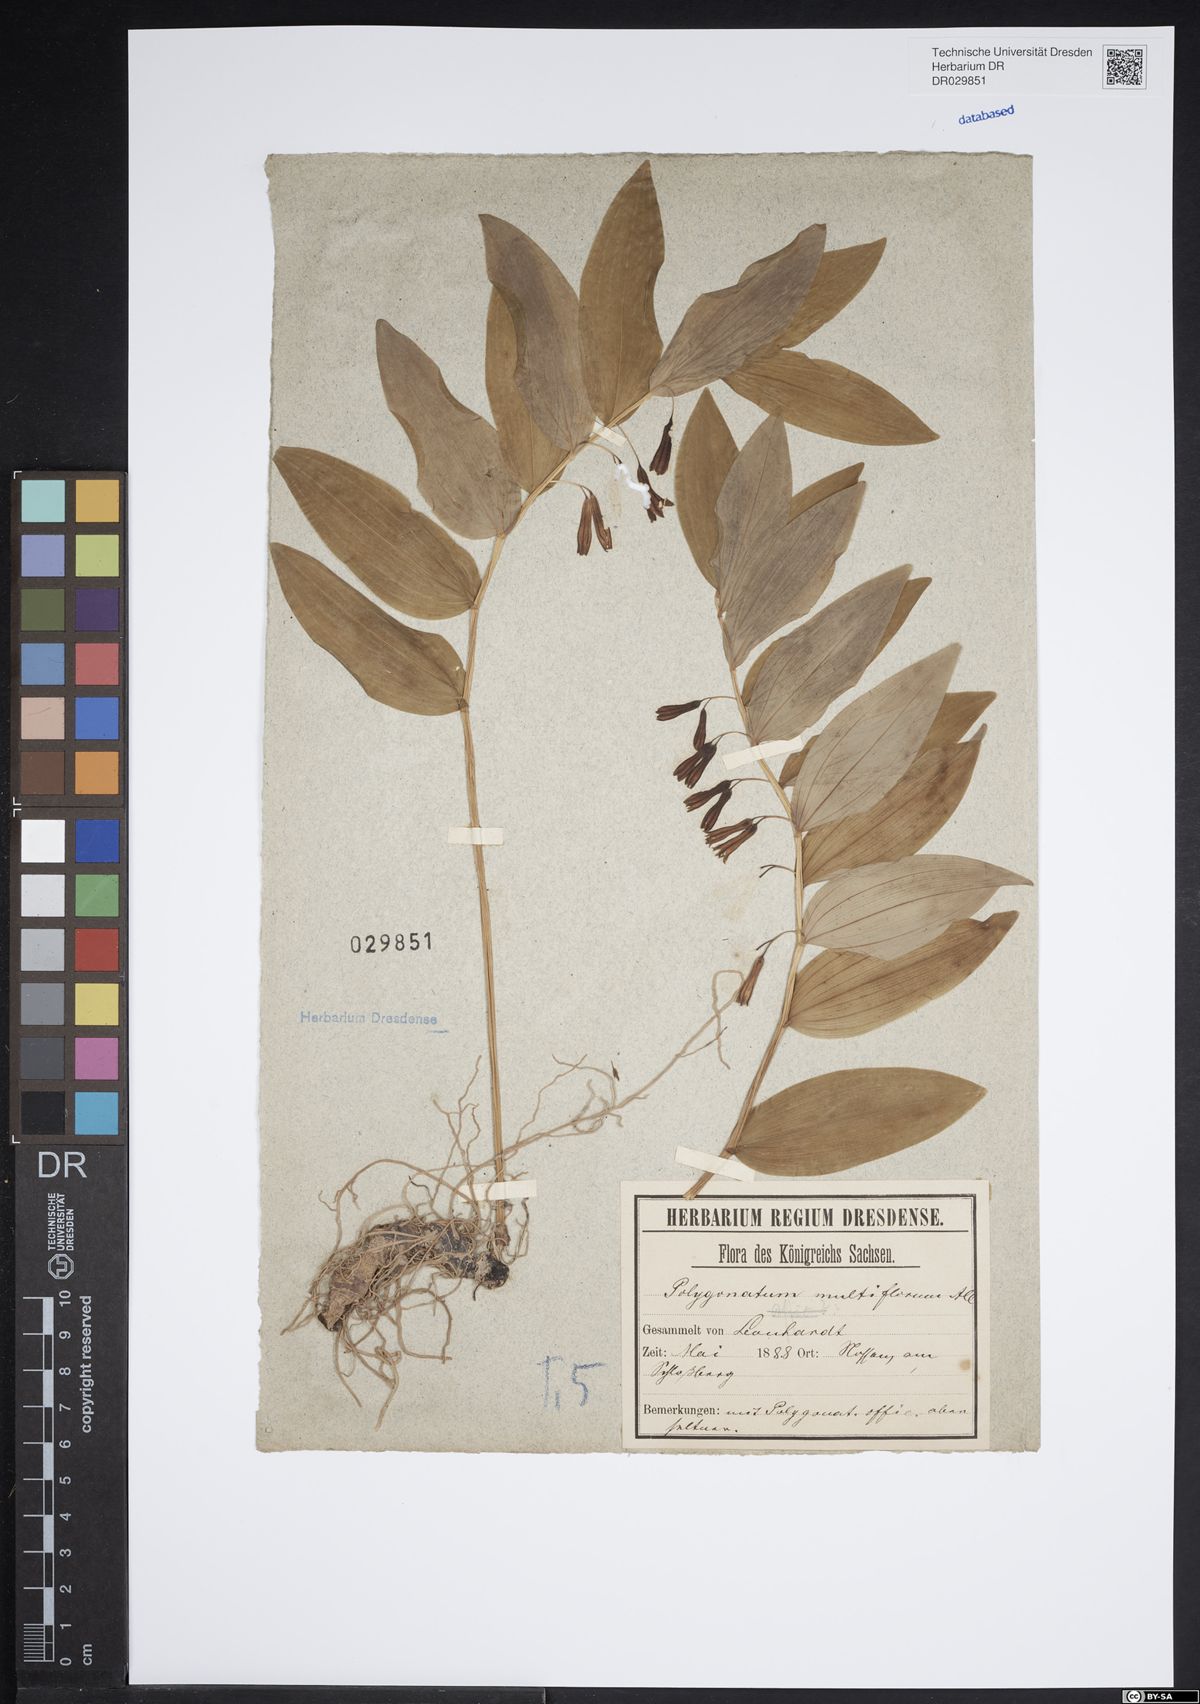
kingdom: Plantae
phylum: Tracheophyta
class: Liliopsida
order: Asparagales
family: Asparagaceae
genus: Polygonatum
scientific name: Polygonatum odoratum
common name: Angular solomon's-seal
